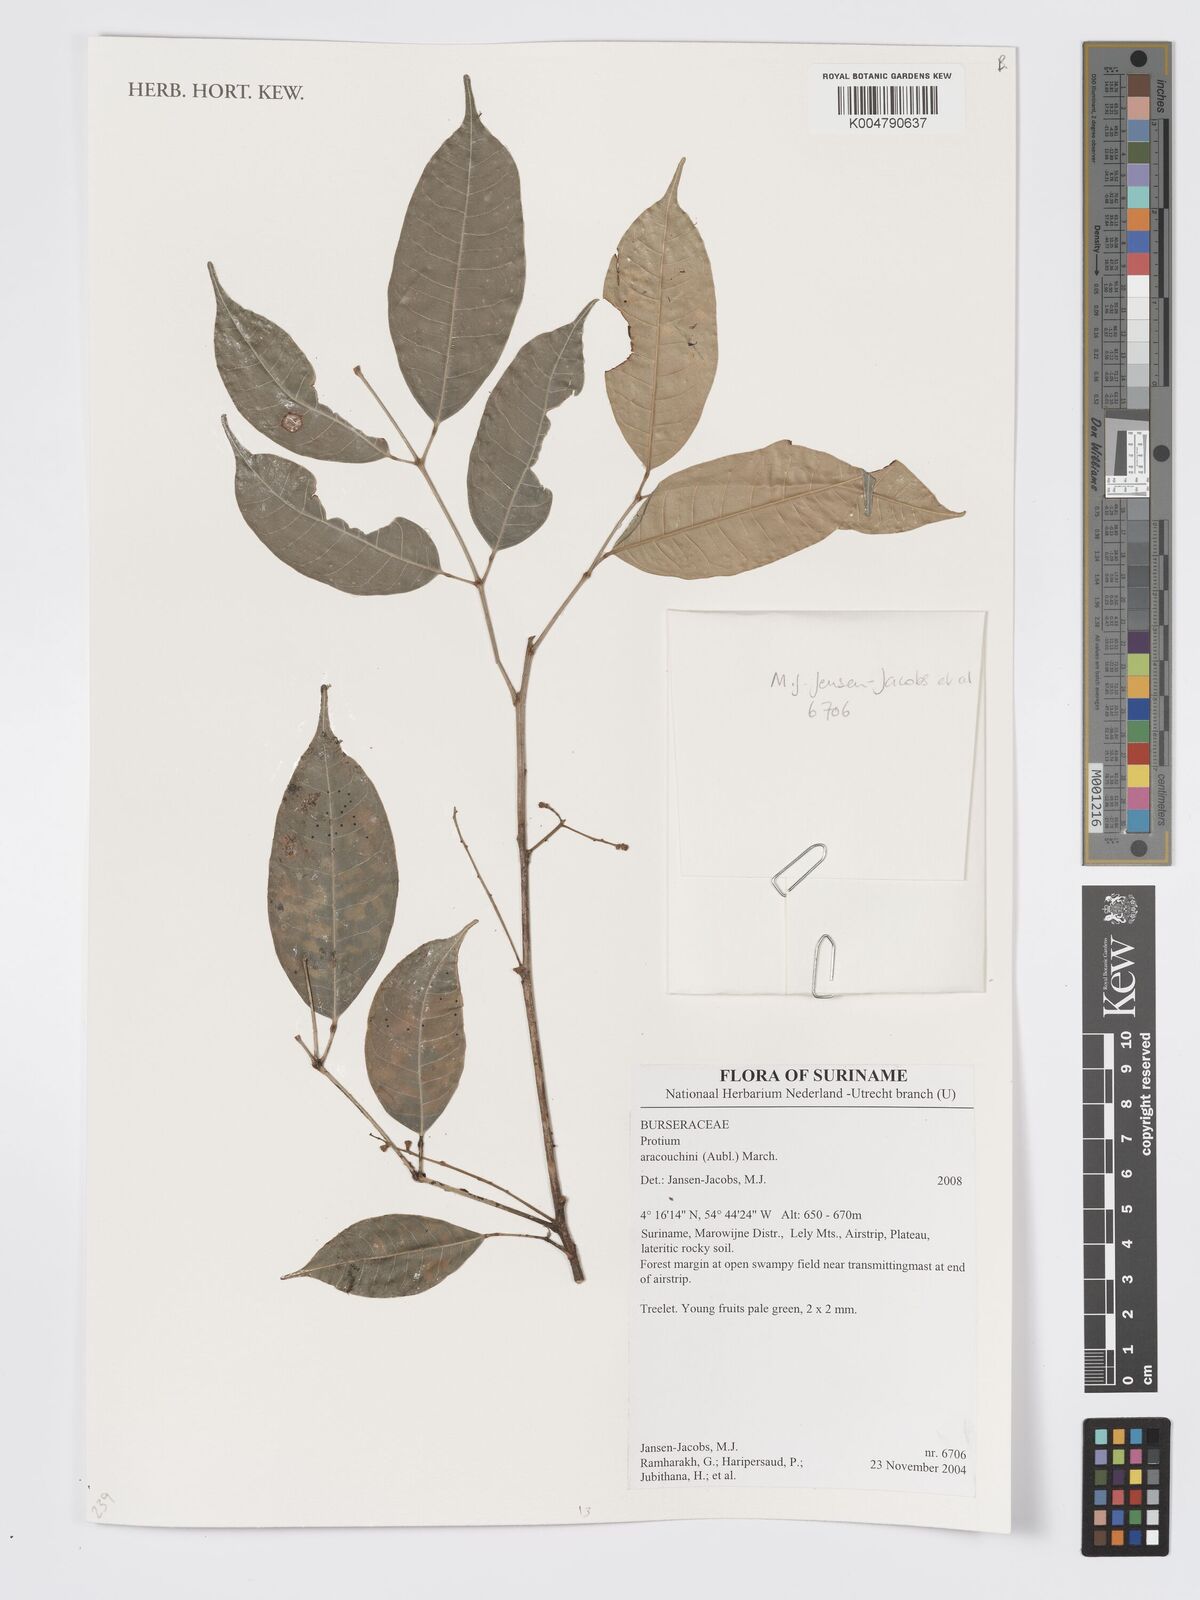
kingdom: Plantae
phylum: Tracheophyta
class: Magnoliopsida
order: Sapindales
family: Burseraceae
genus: Protium
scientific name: Protium aracouchini
